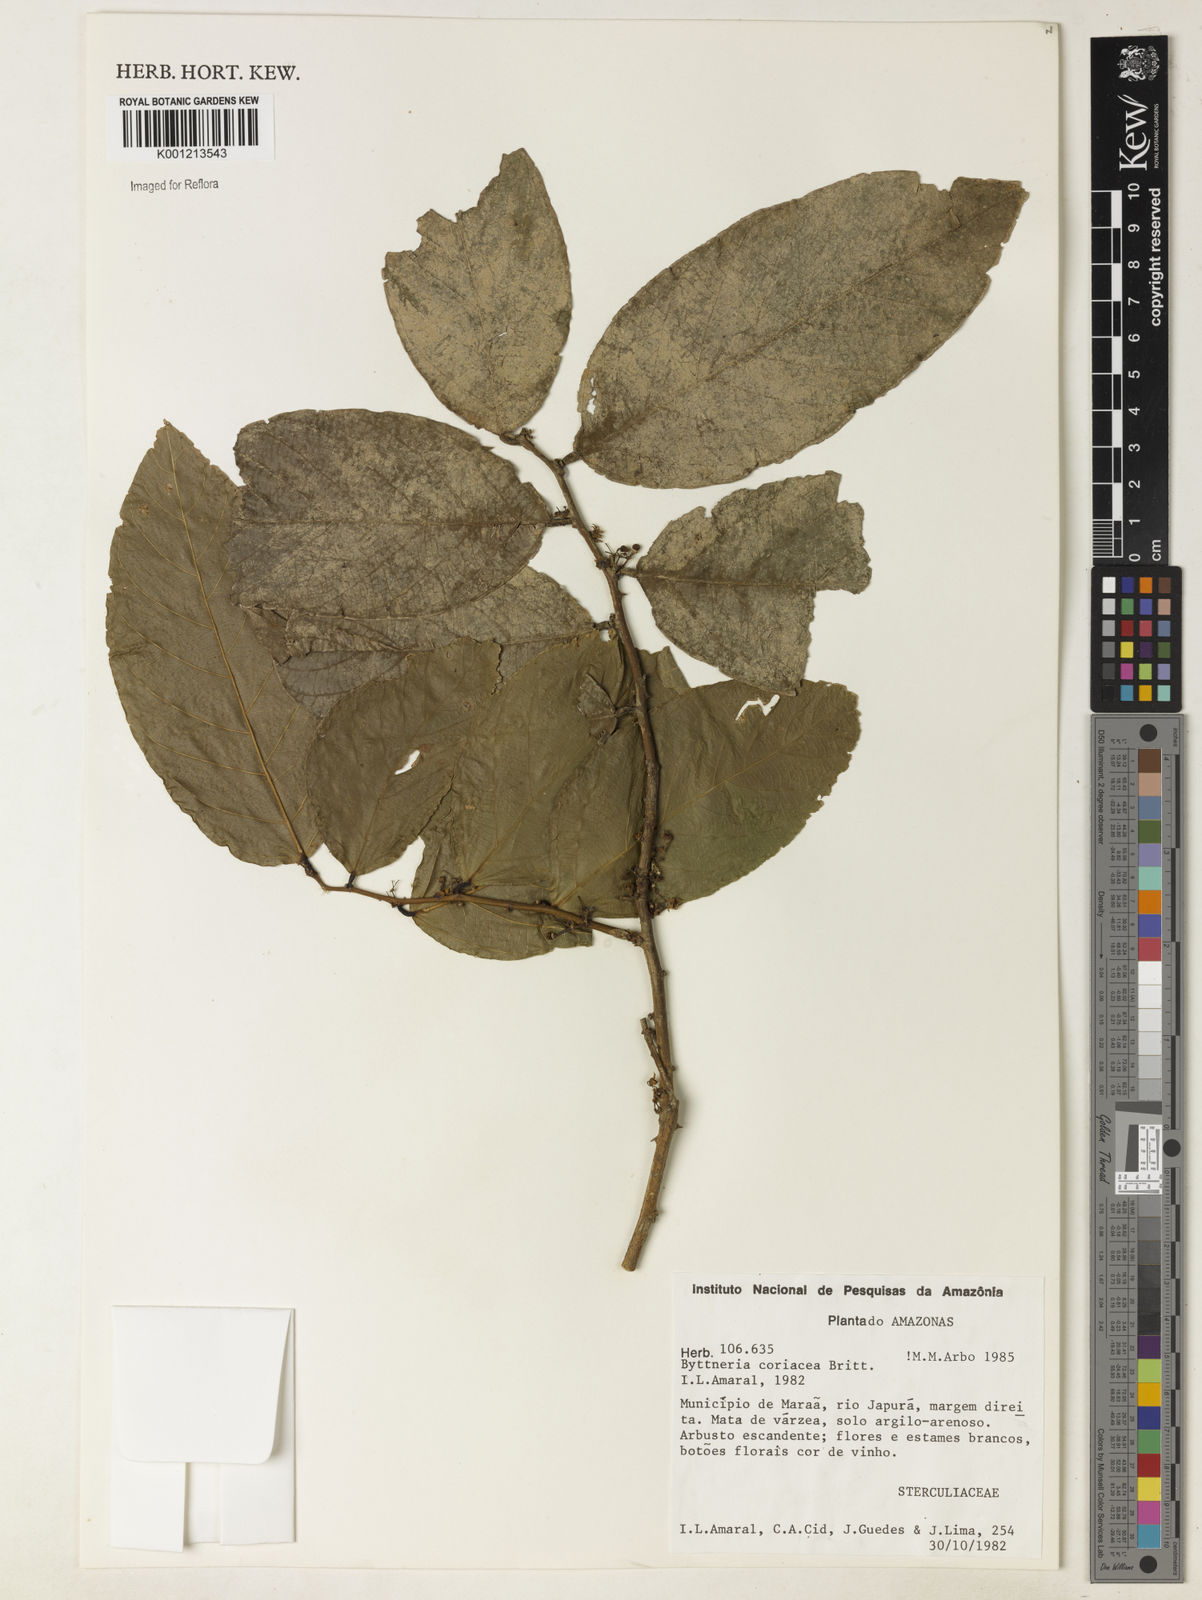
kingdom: Plantae
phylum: Tracheophyta
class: Magnoliopsida
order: Malvales
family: Malvaceae
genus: Byttneria
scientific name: Byttneria coriacea
